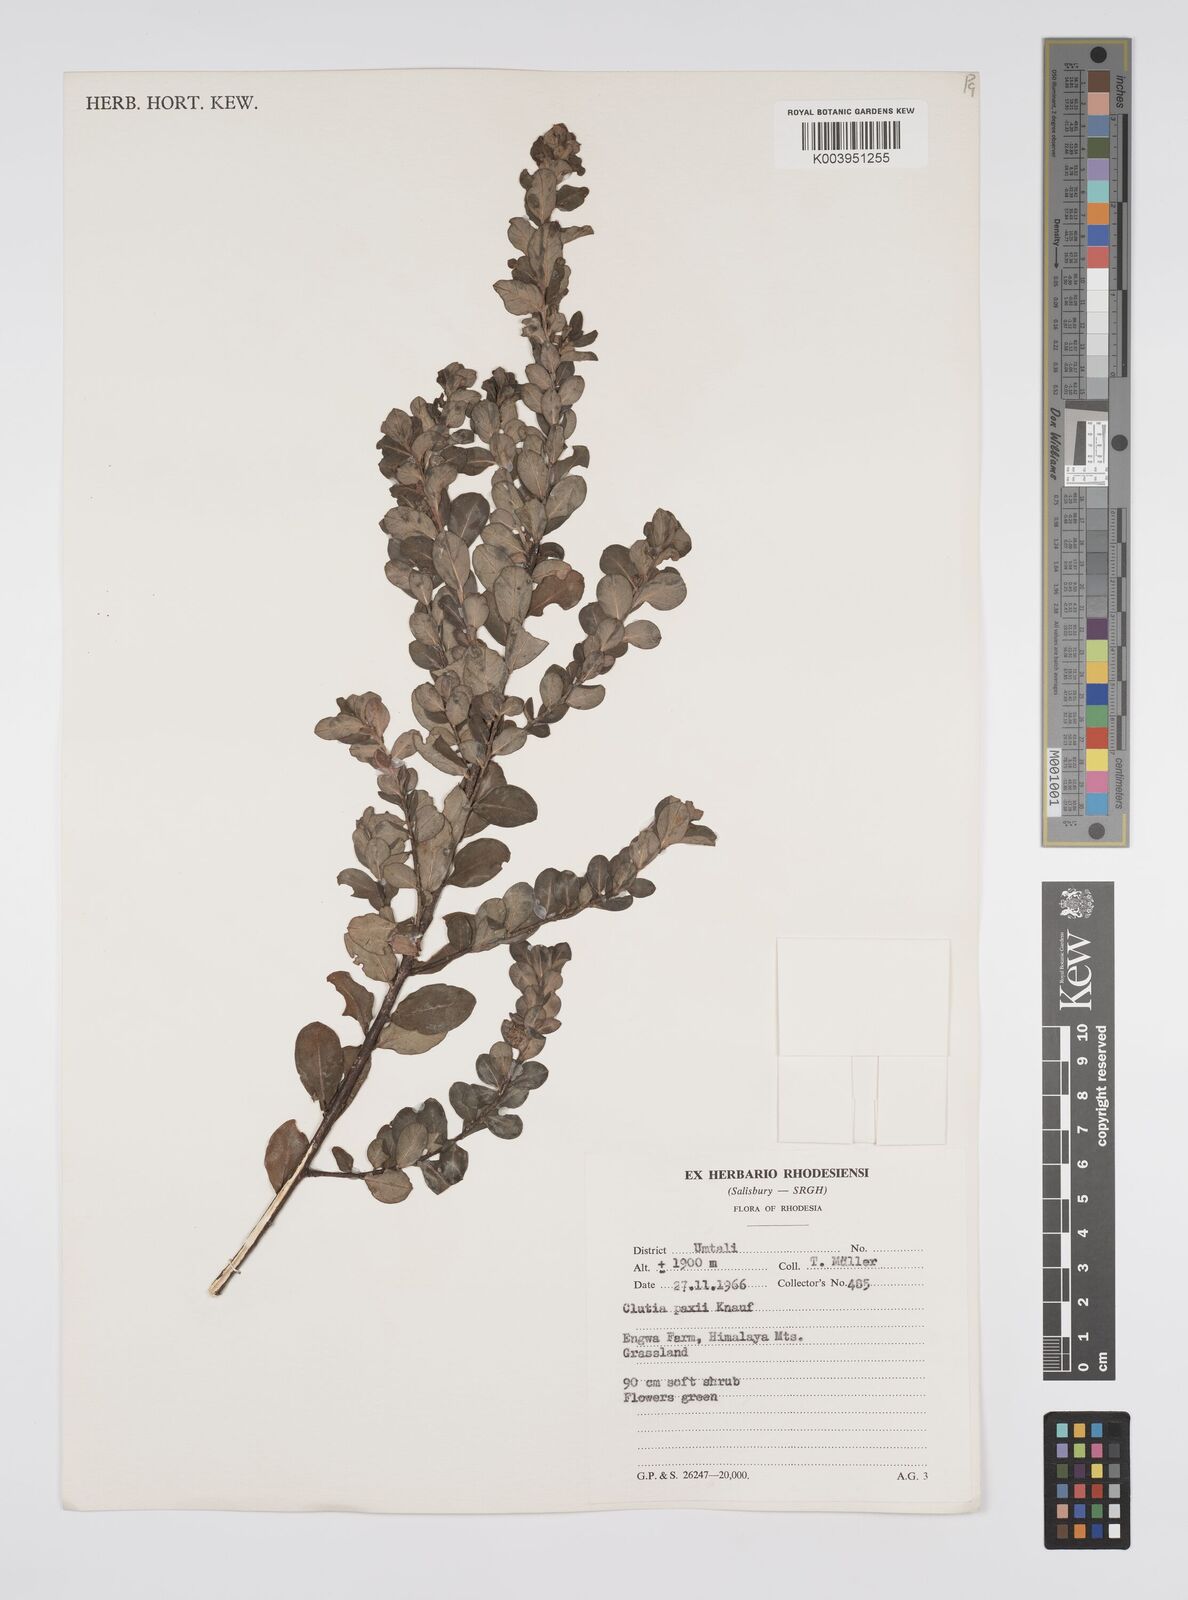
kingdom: Plantae
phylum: Tracheophyta
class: Magnoliopsida
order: Malpighiales
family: Peraceae
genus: Clutia
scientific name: Clutia paxii
